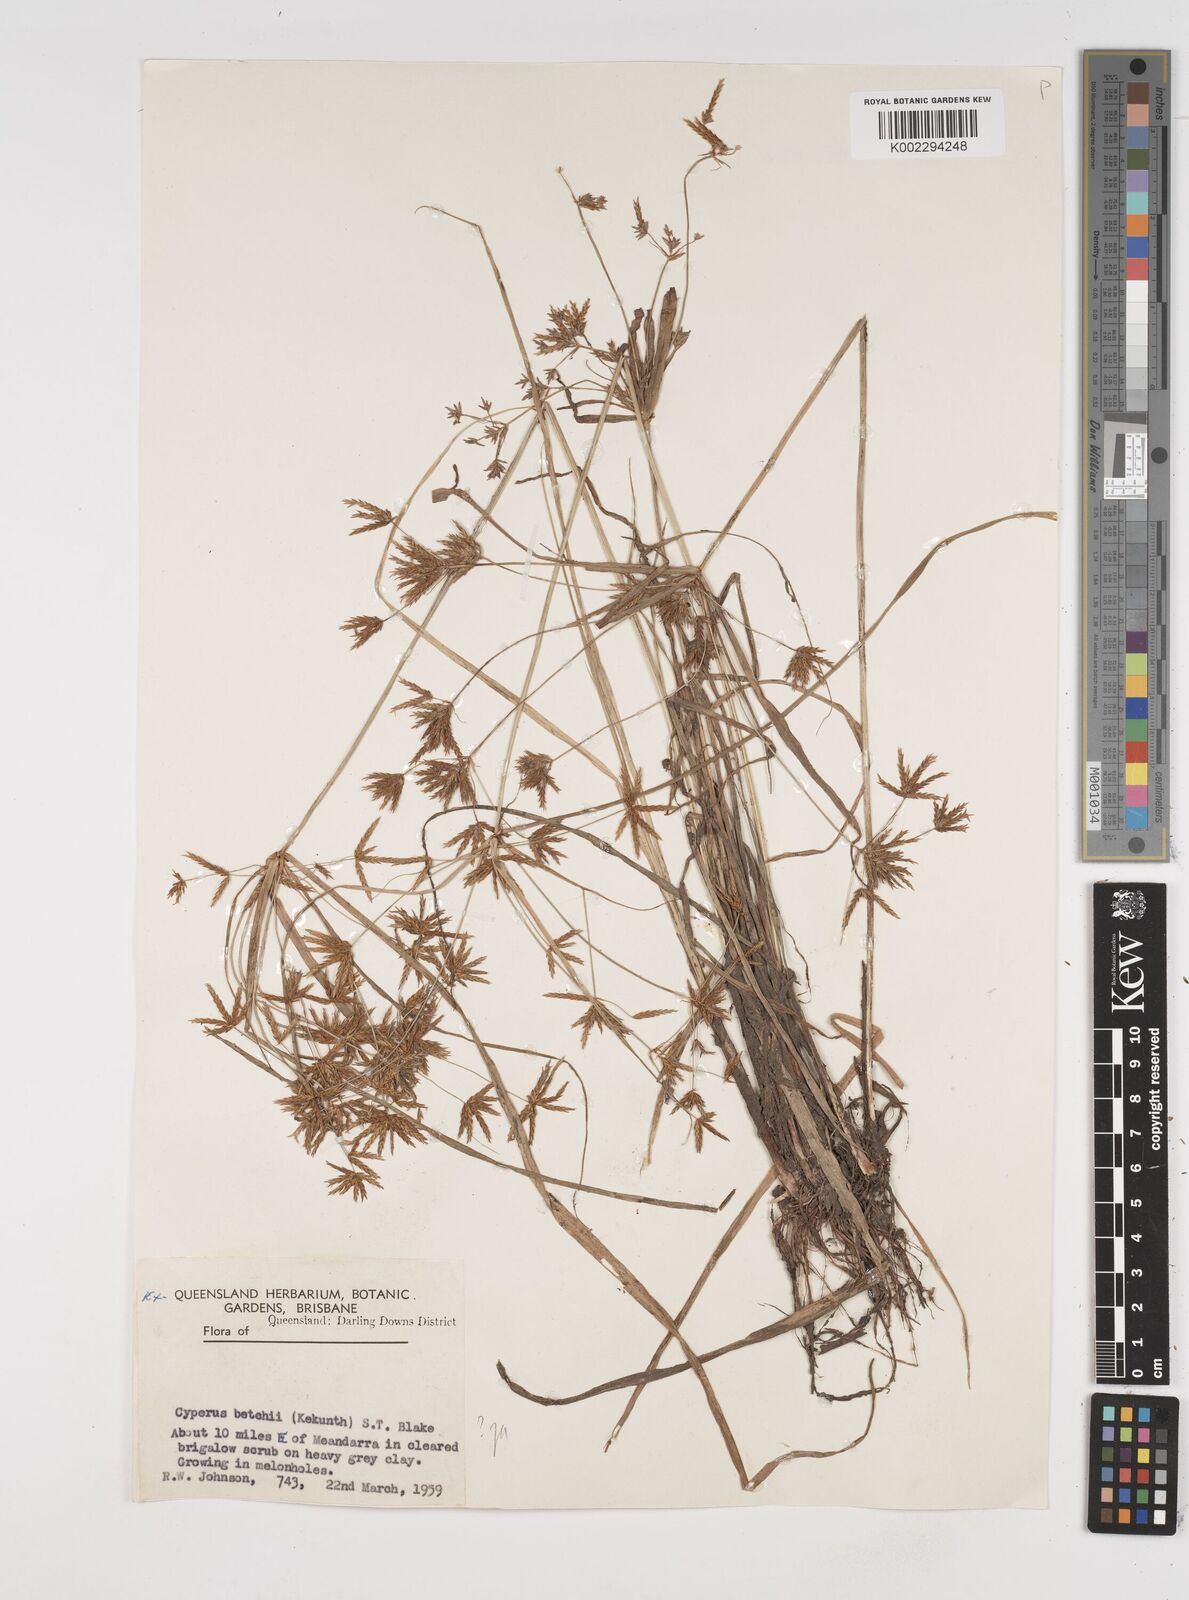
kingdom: Plantae
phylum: Tracheophyta
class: Liliopsida
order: Poales
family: Cyperaceae
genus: Cyperus
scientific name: Cyperus betchei
